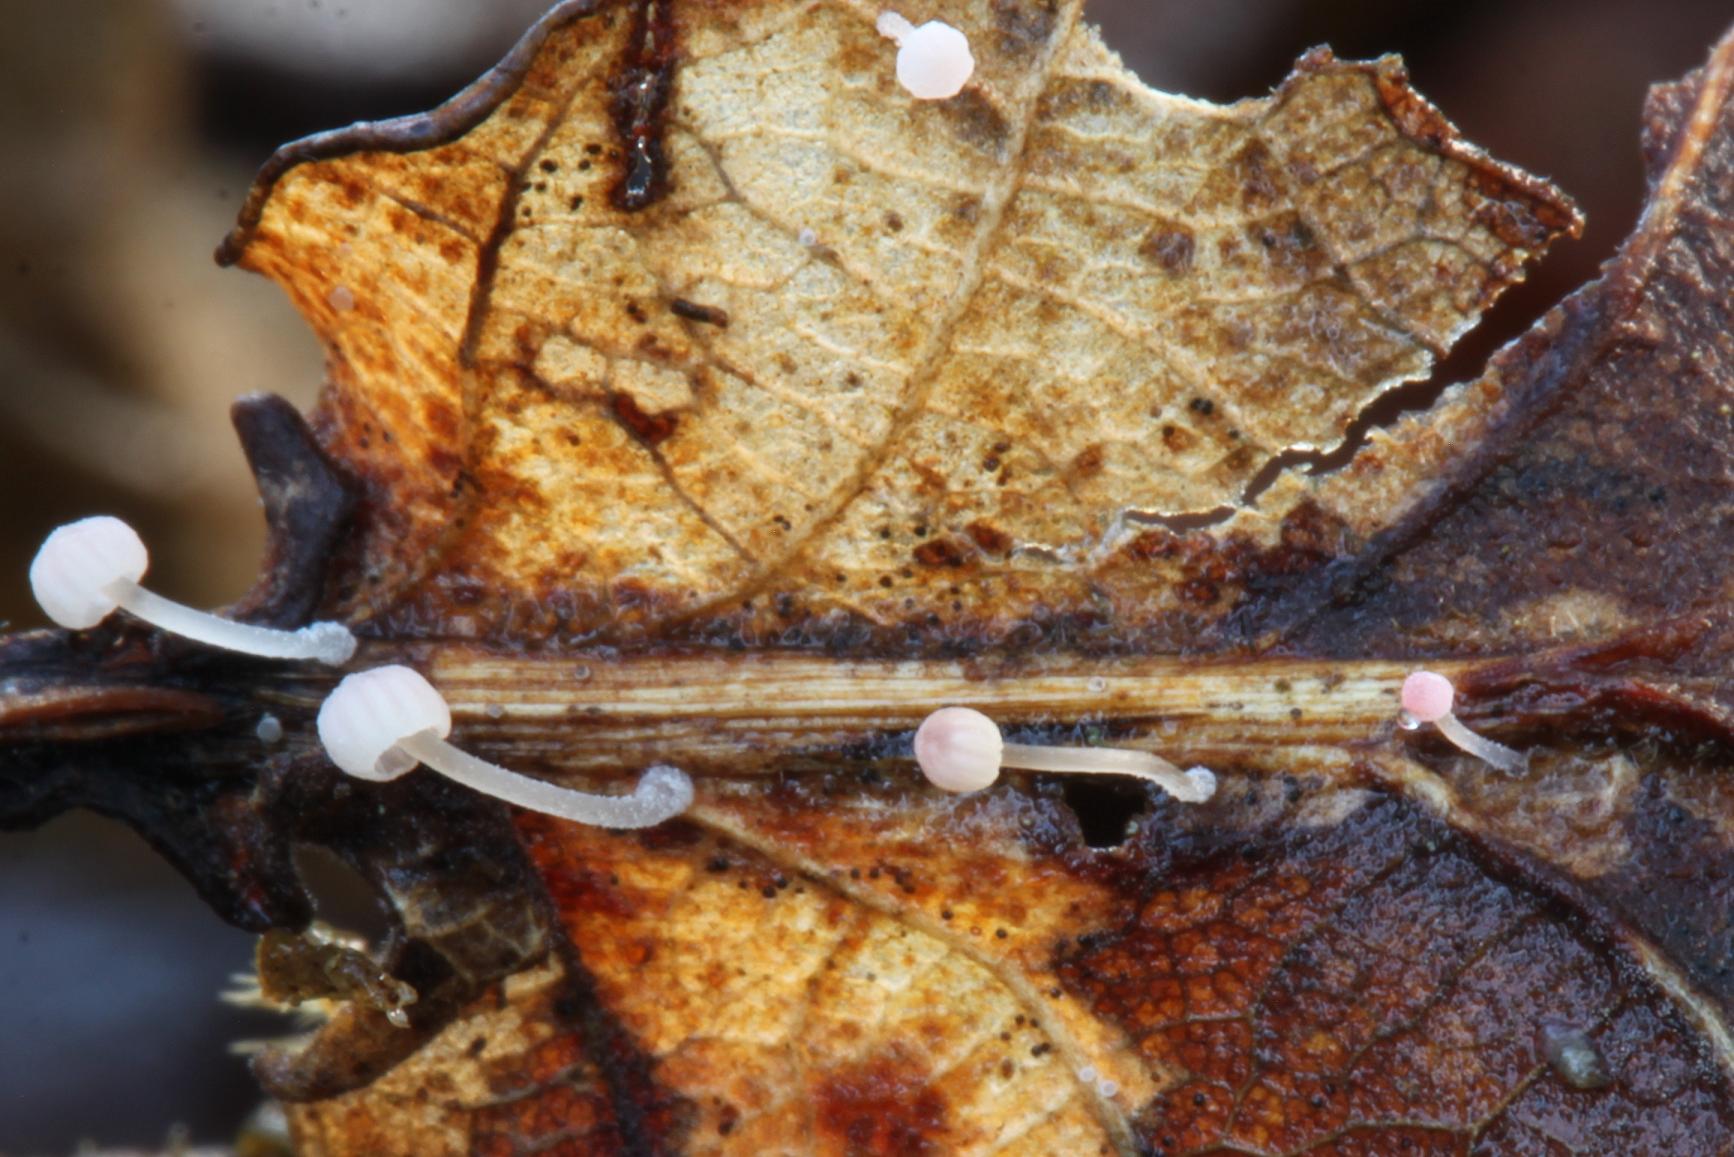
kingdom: Fungi
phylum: Basidiomycota
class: Agaricomycetes
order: Agaricales
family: Mycenaceae
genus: Mycena
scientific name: Mycena smithiana
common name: blegrød huesvamp
